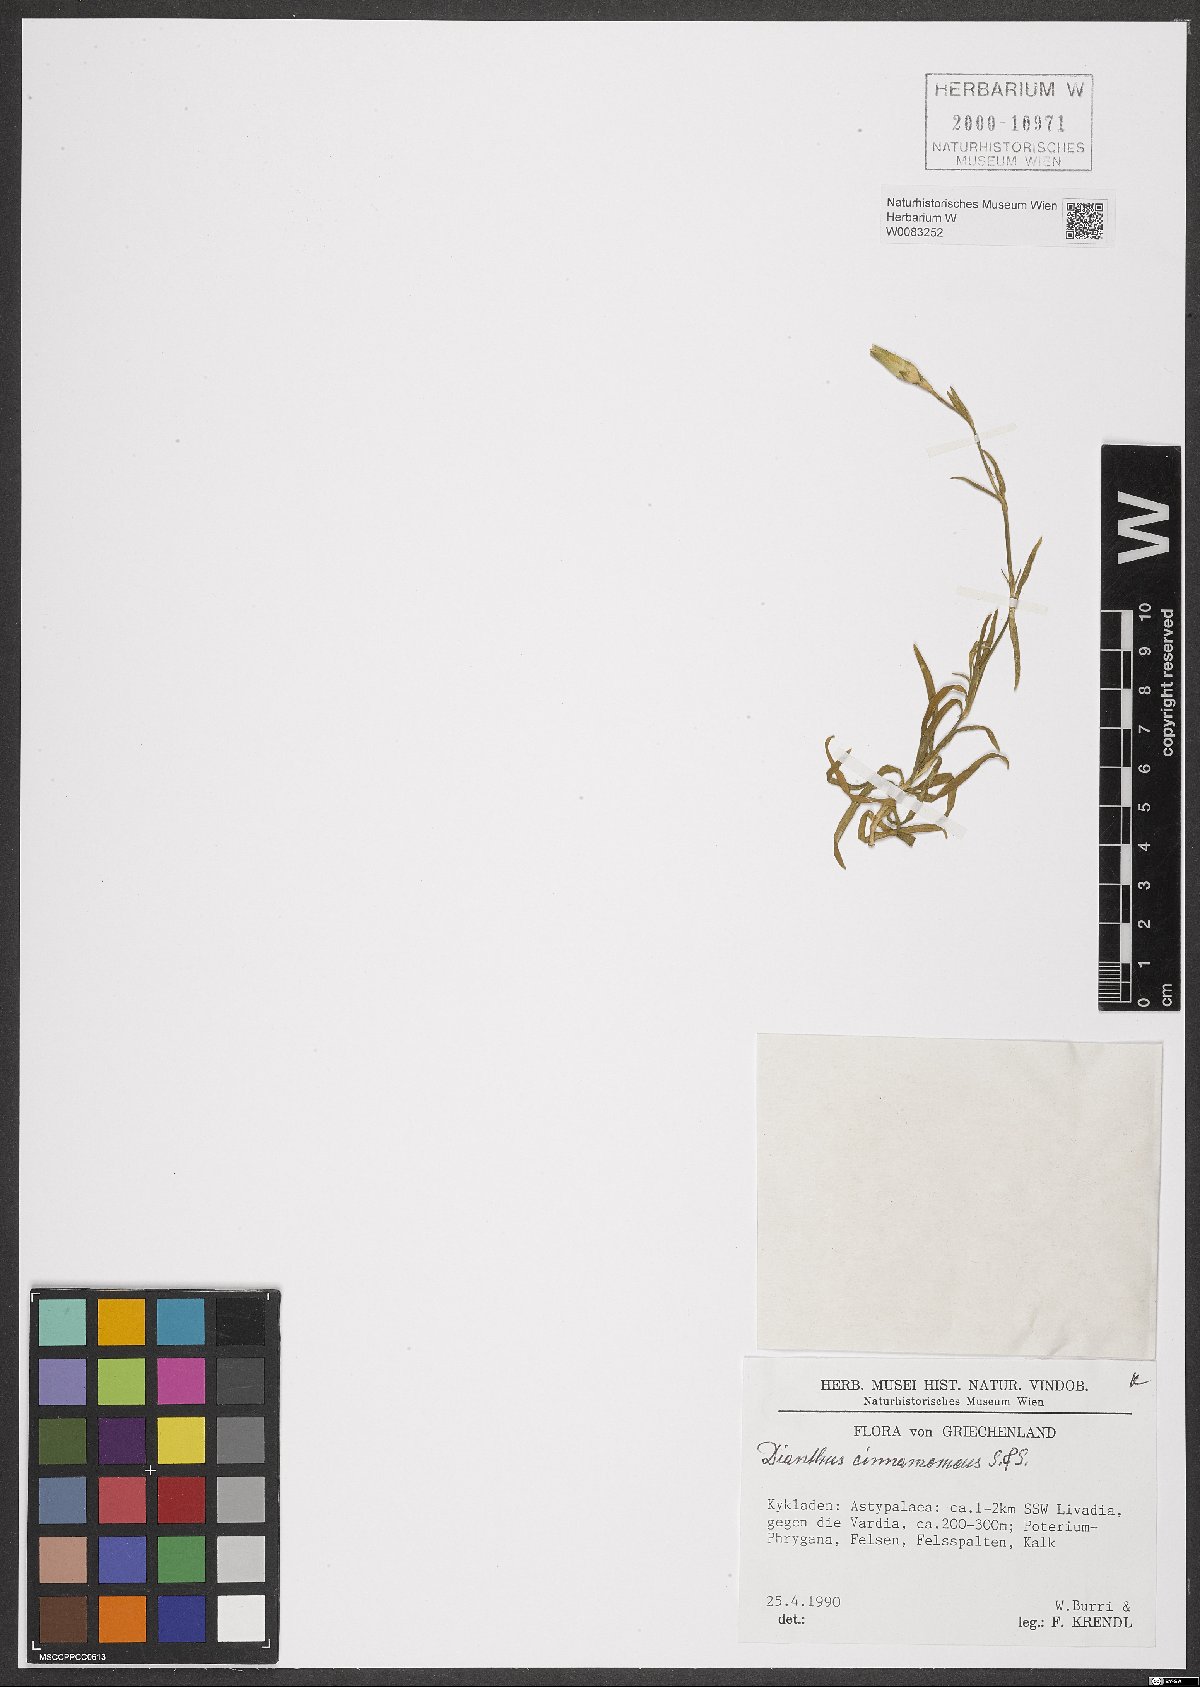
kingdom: Plantae
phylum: Tracheophyta
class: Magnoliopsida
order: Caryophyllales
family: Caryophyllaceae
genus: Dianthus
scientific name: Dianthus cinnamomeus
